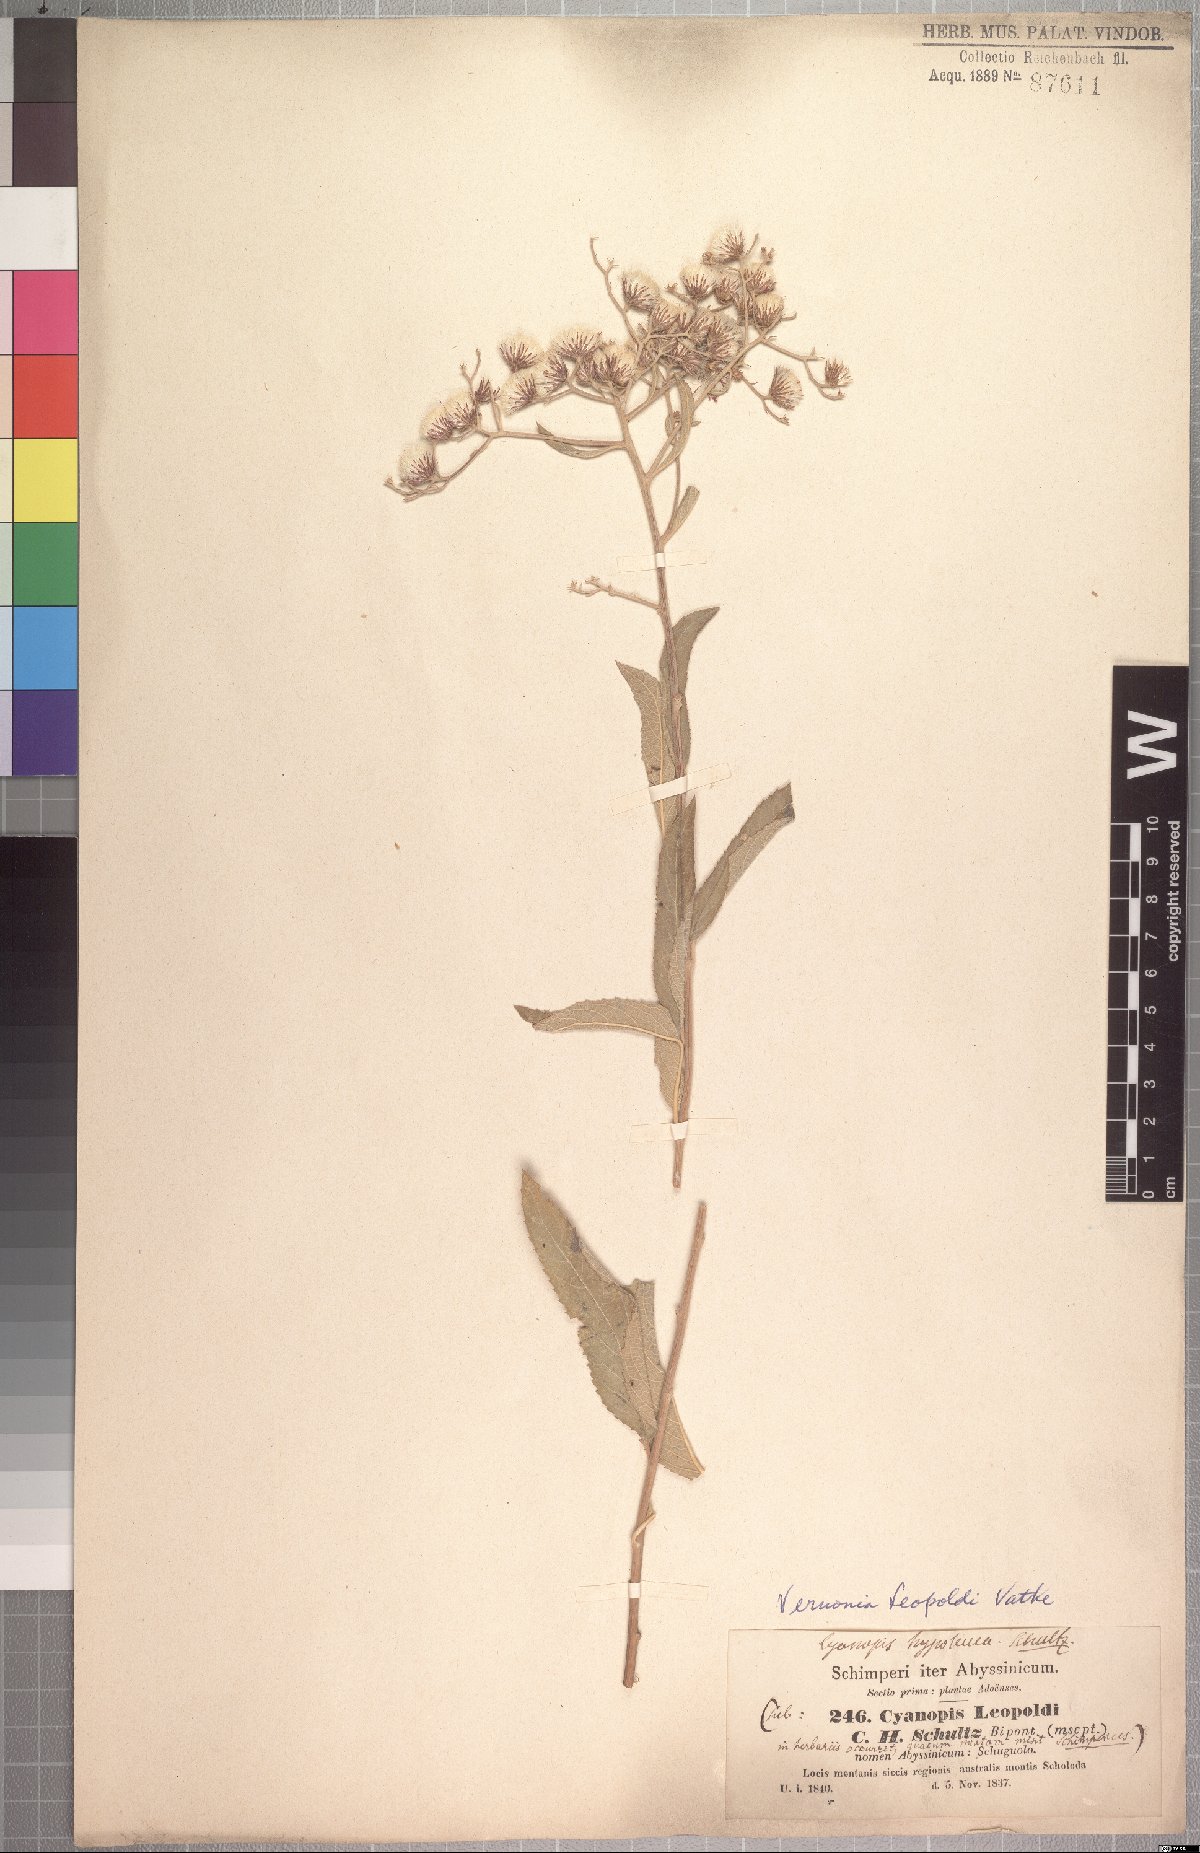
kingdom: Plantae
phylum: Tracheophyta
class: Magnoliopsida
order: Asterales
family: Asteraceae
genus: Vernonia
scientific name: Vernonia bipontini
